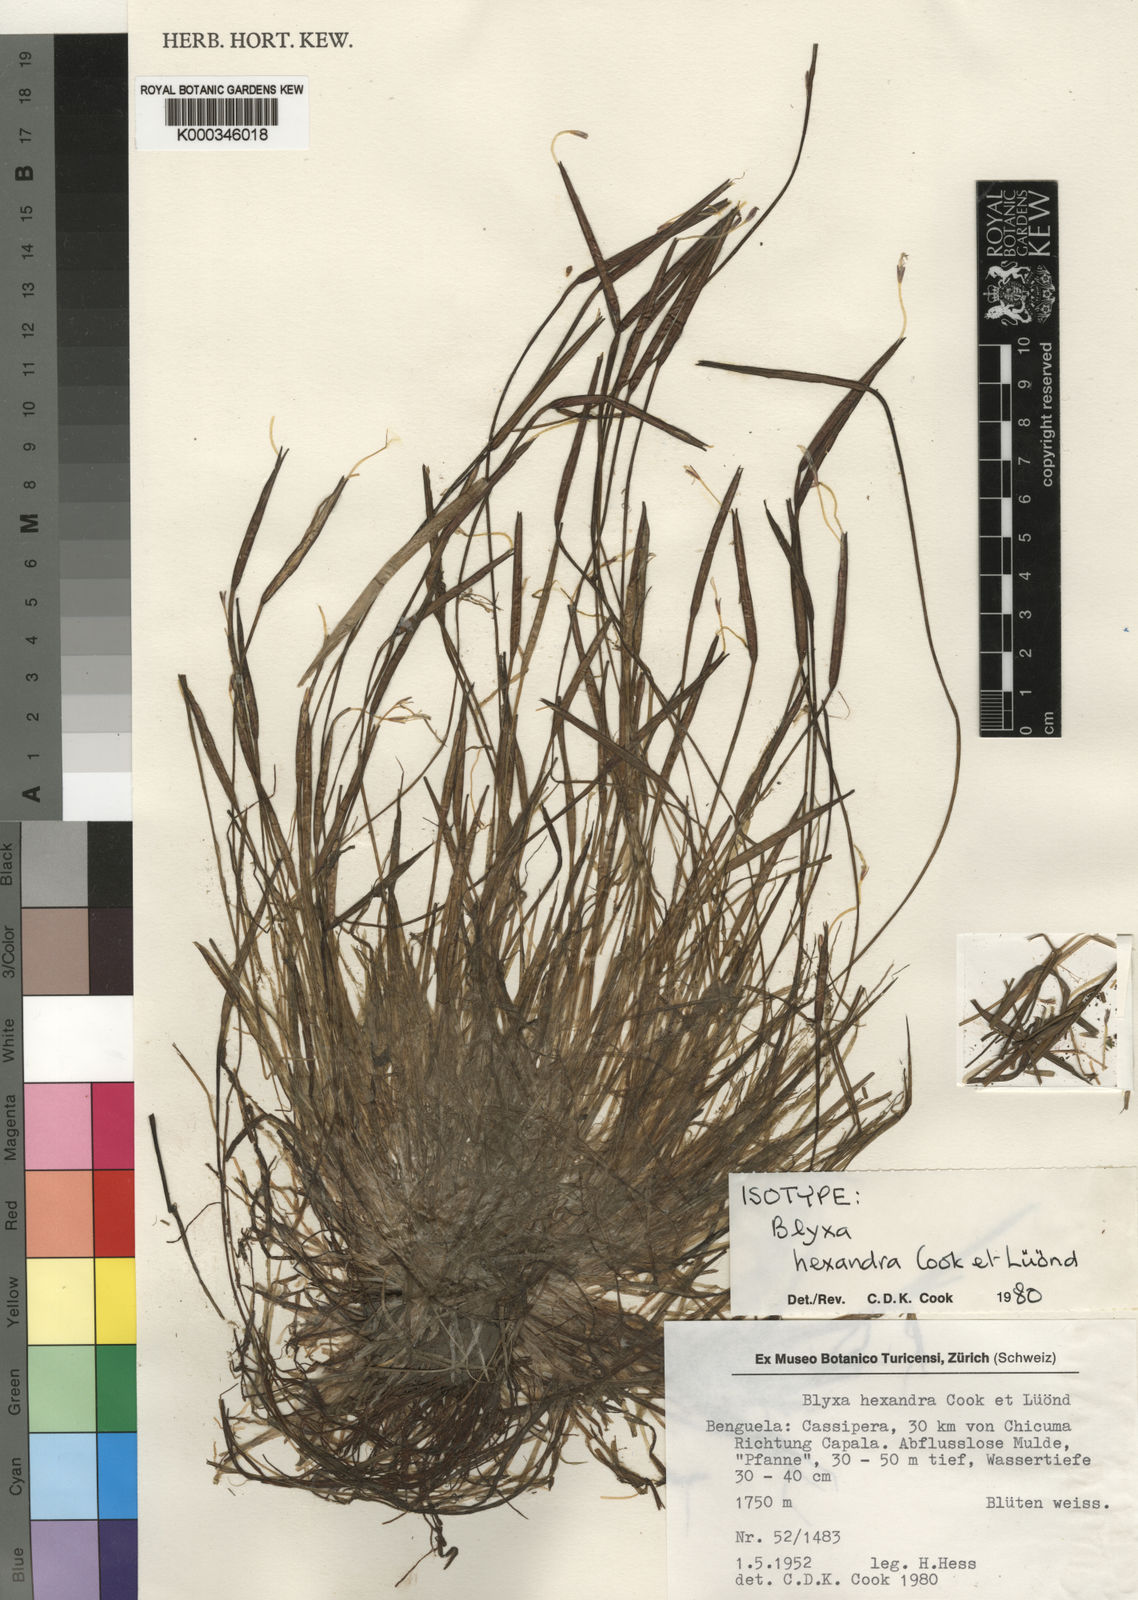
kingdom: Plantae
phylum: Tracheophyta
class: Liliopsida
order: Alismatales
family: Hydrocharitaceae
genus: Blyxa
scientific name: Blyxa
